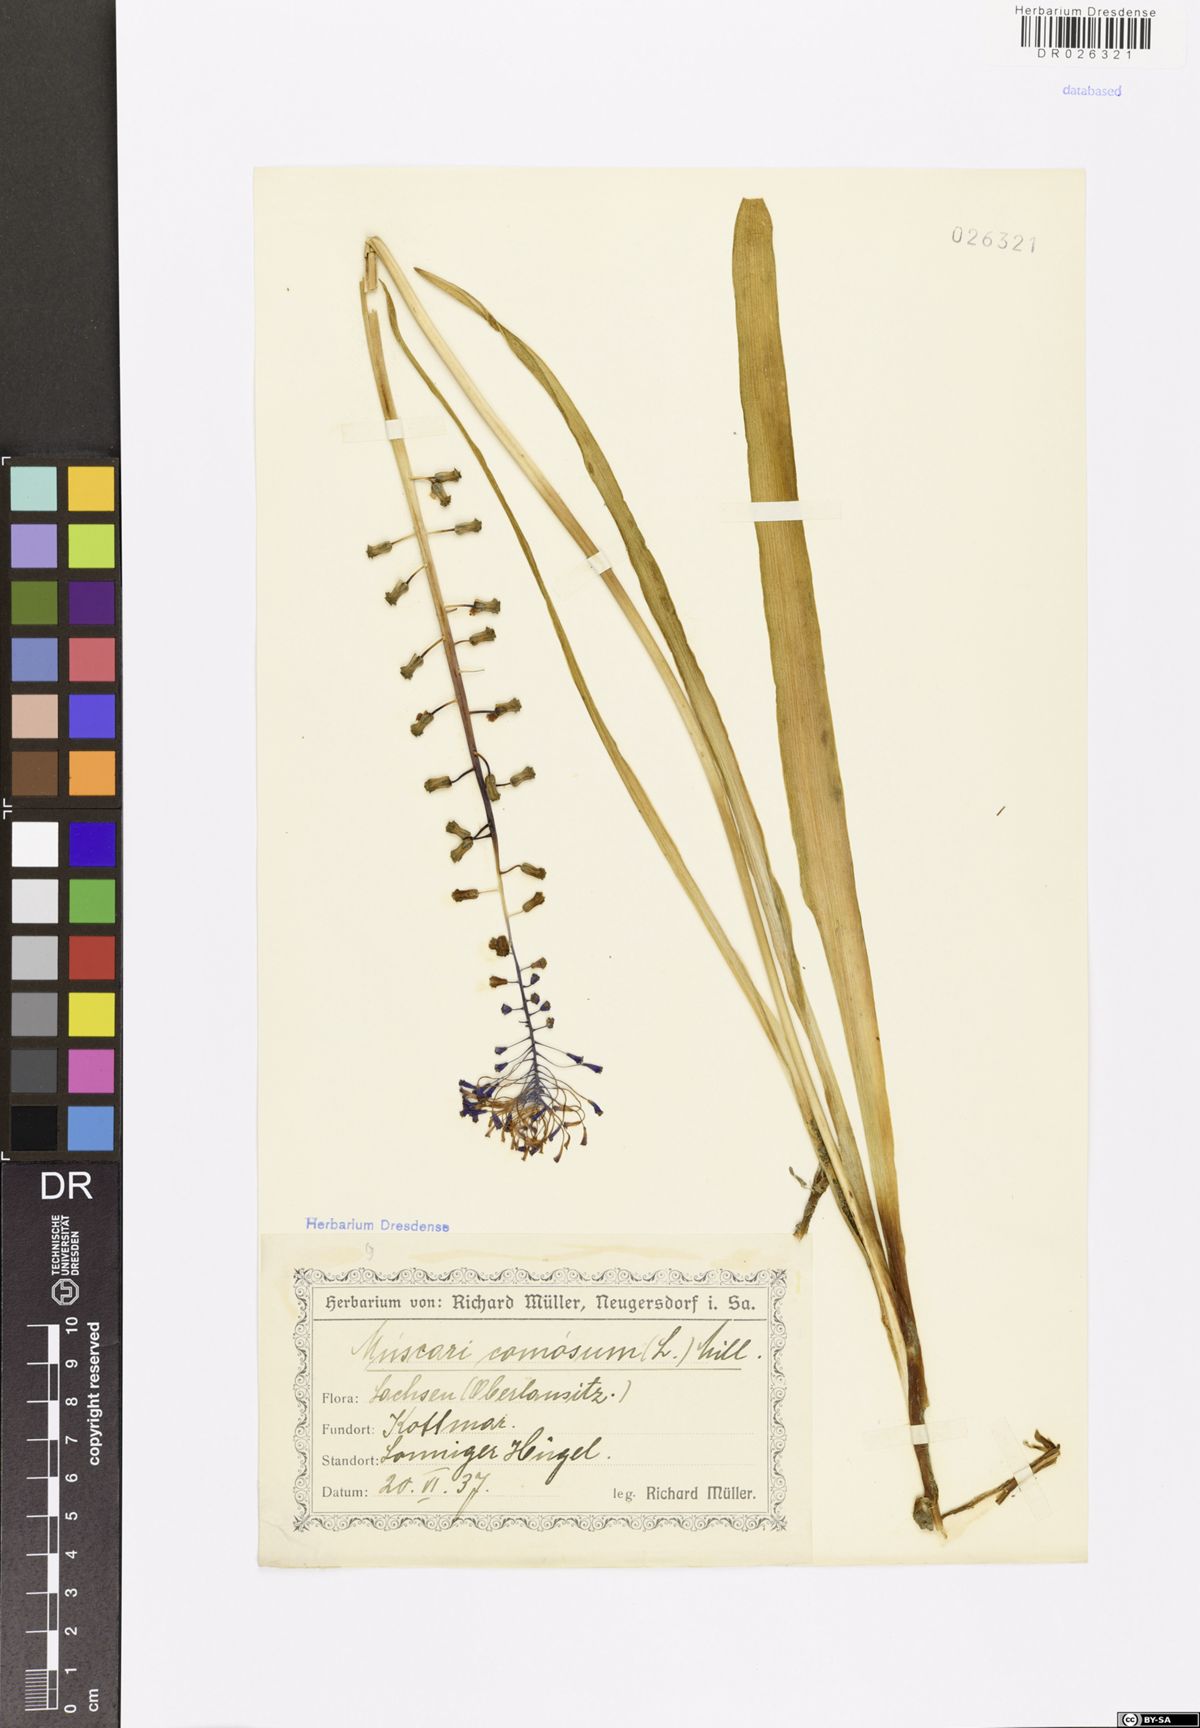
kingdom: Plantae
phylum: Tracheophyta
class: Liliopsida
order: Asparagales
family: Asparagaceae
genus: Muscari
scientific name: Muscari comosum
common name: Tassel hyacinth
